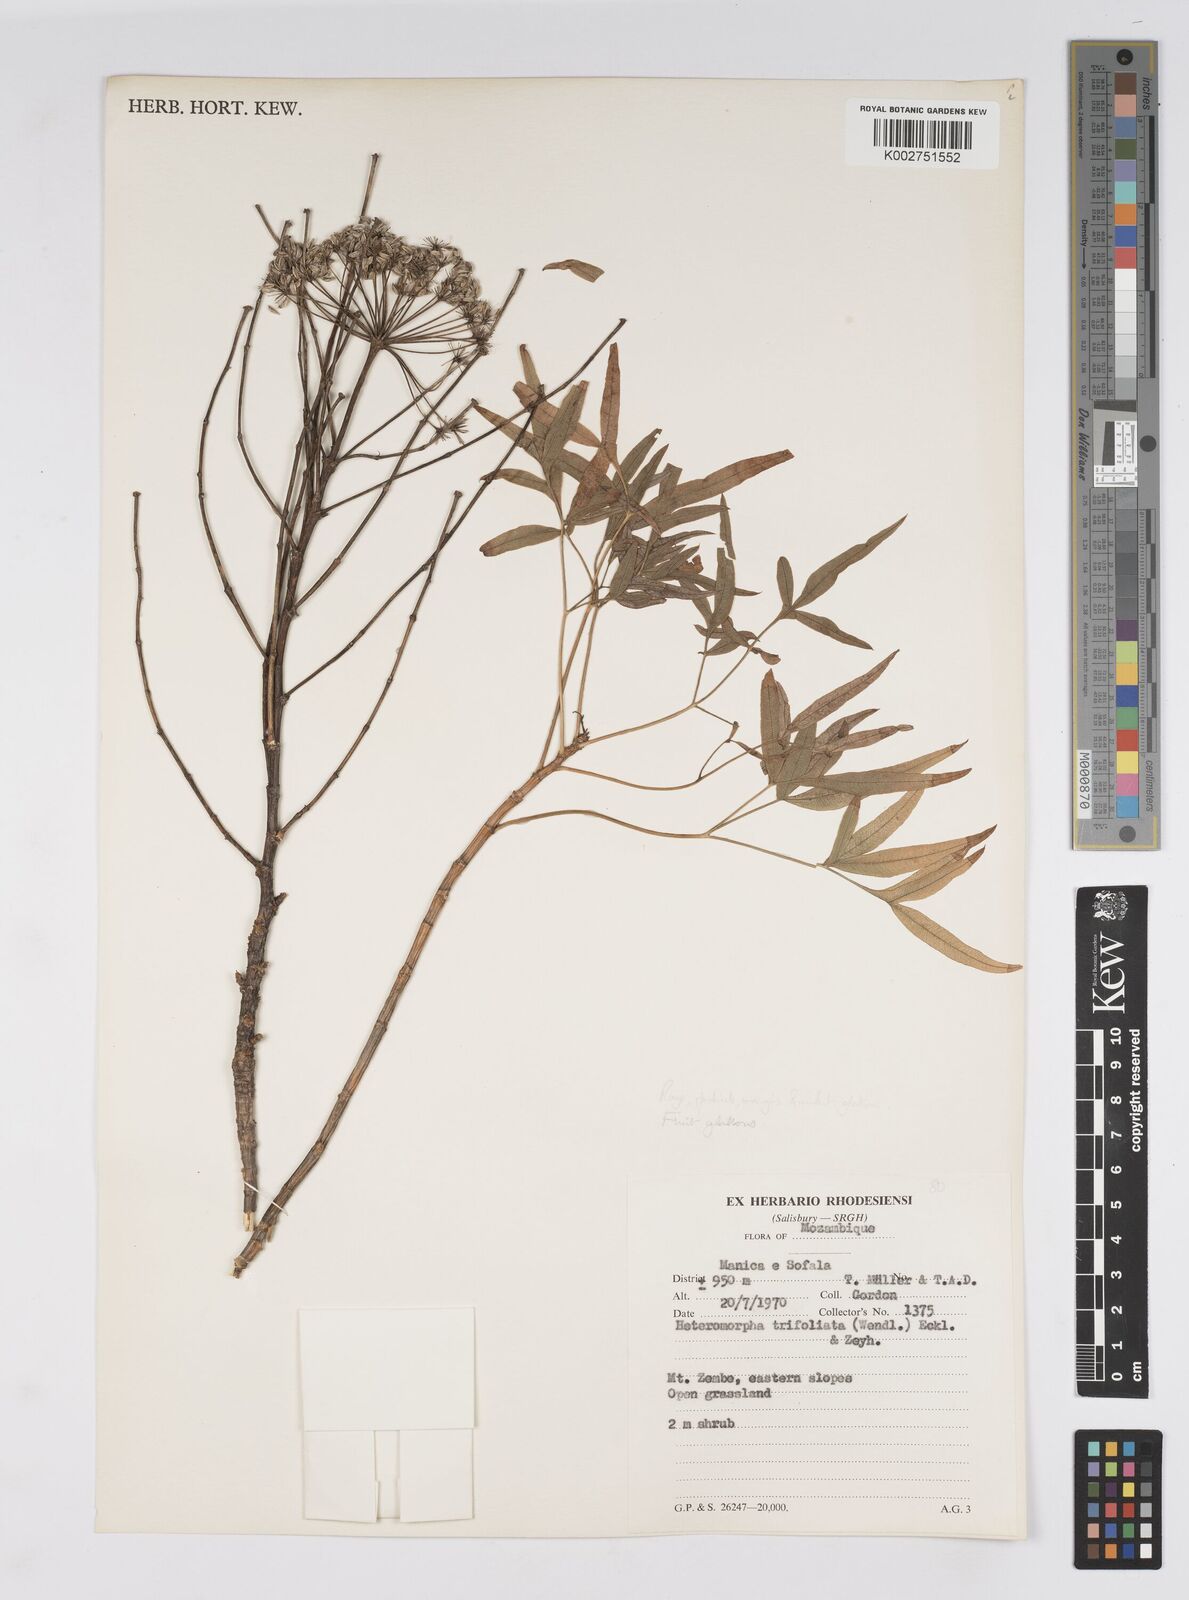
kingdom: Plantae
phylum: Tracheophyta
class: Magnoliopsida
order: Apiales
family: Apiaceae
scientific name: Apiaceae
